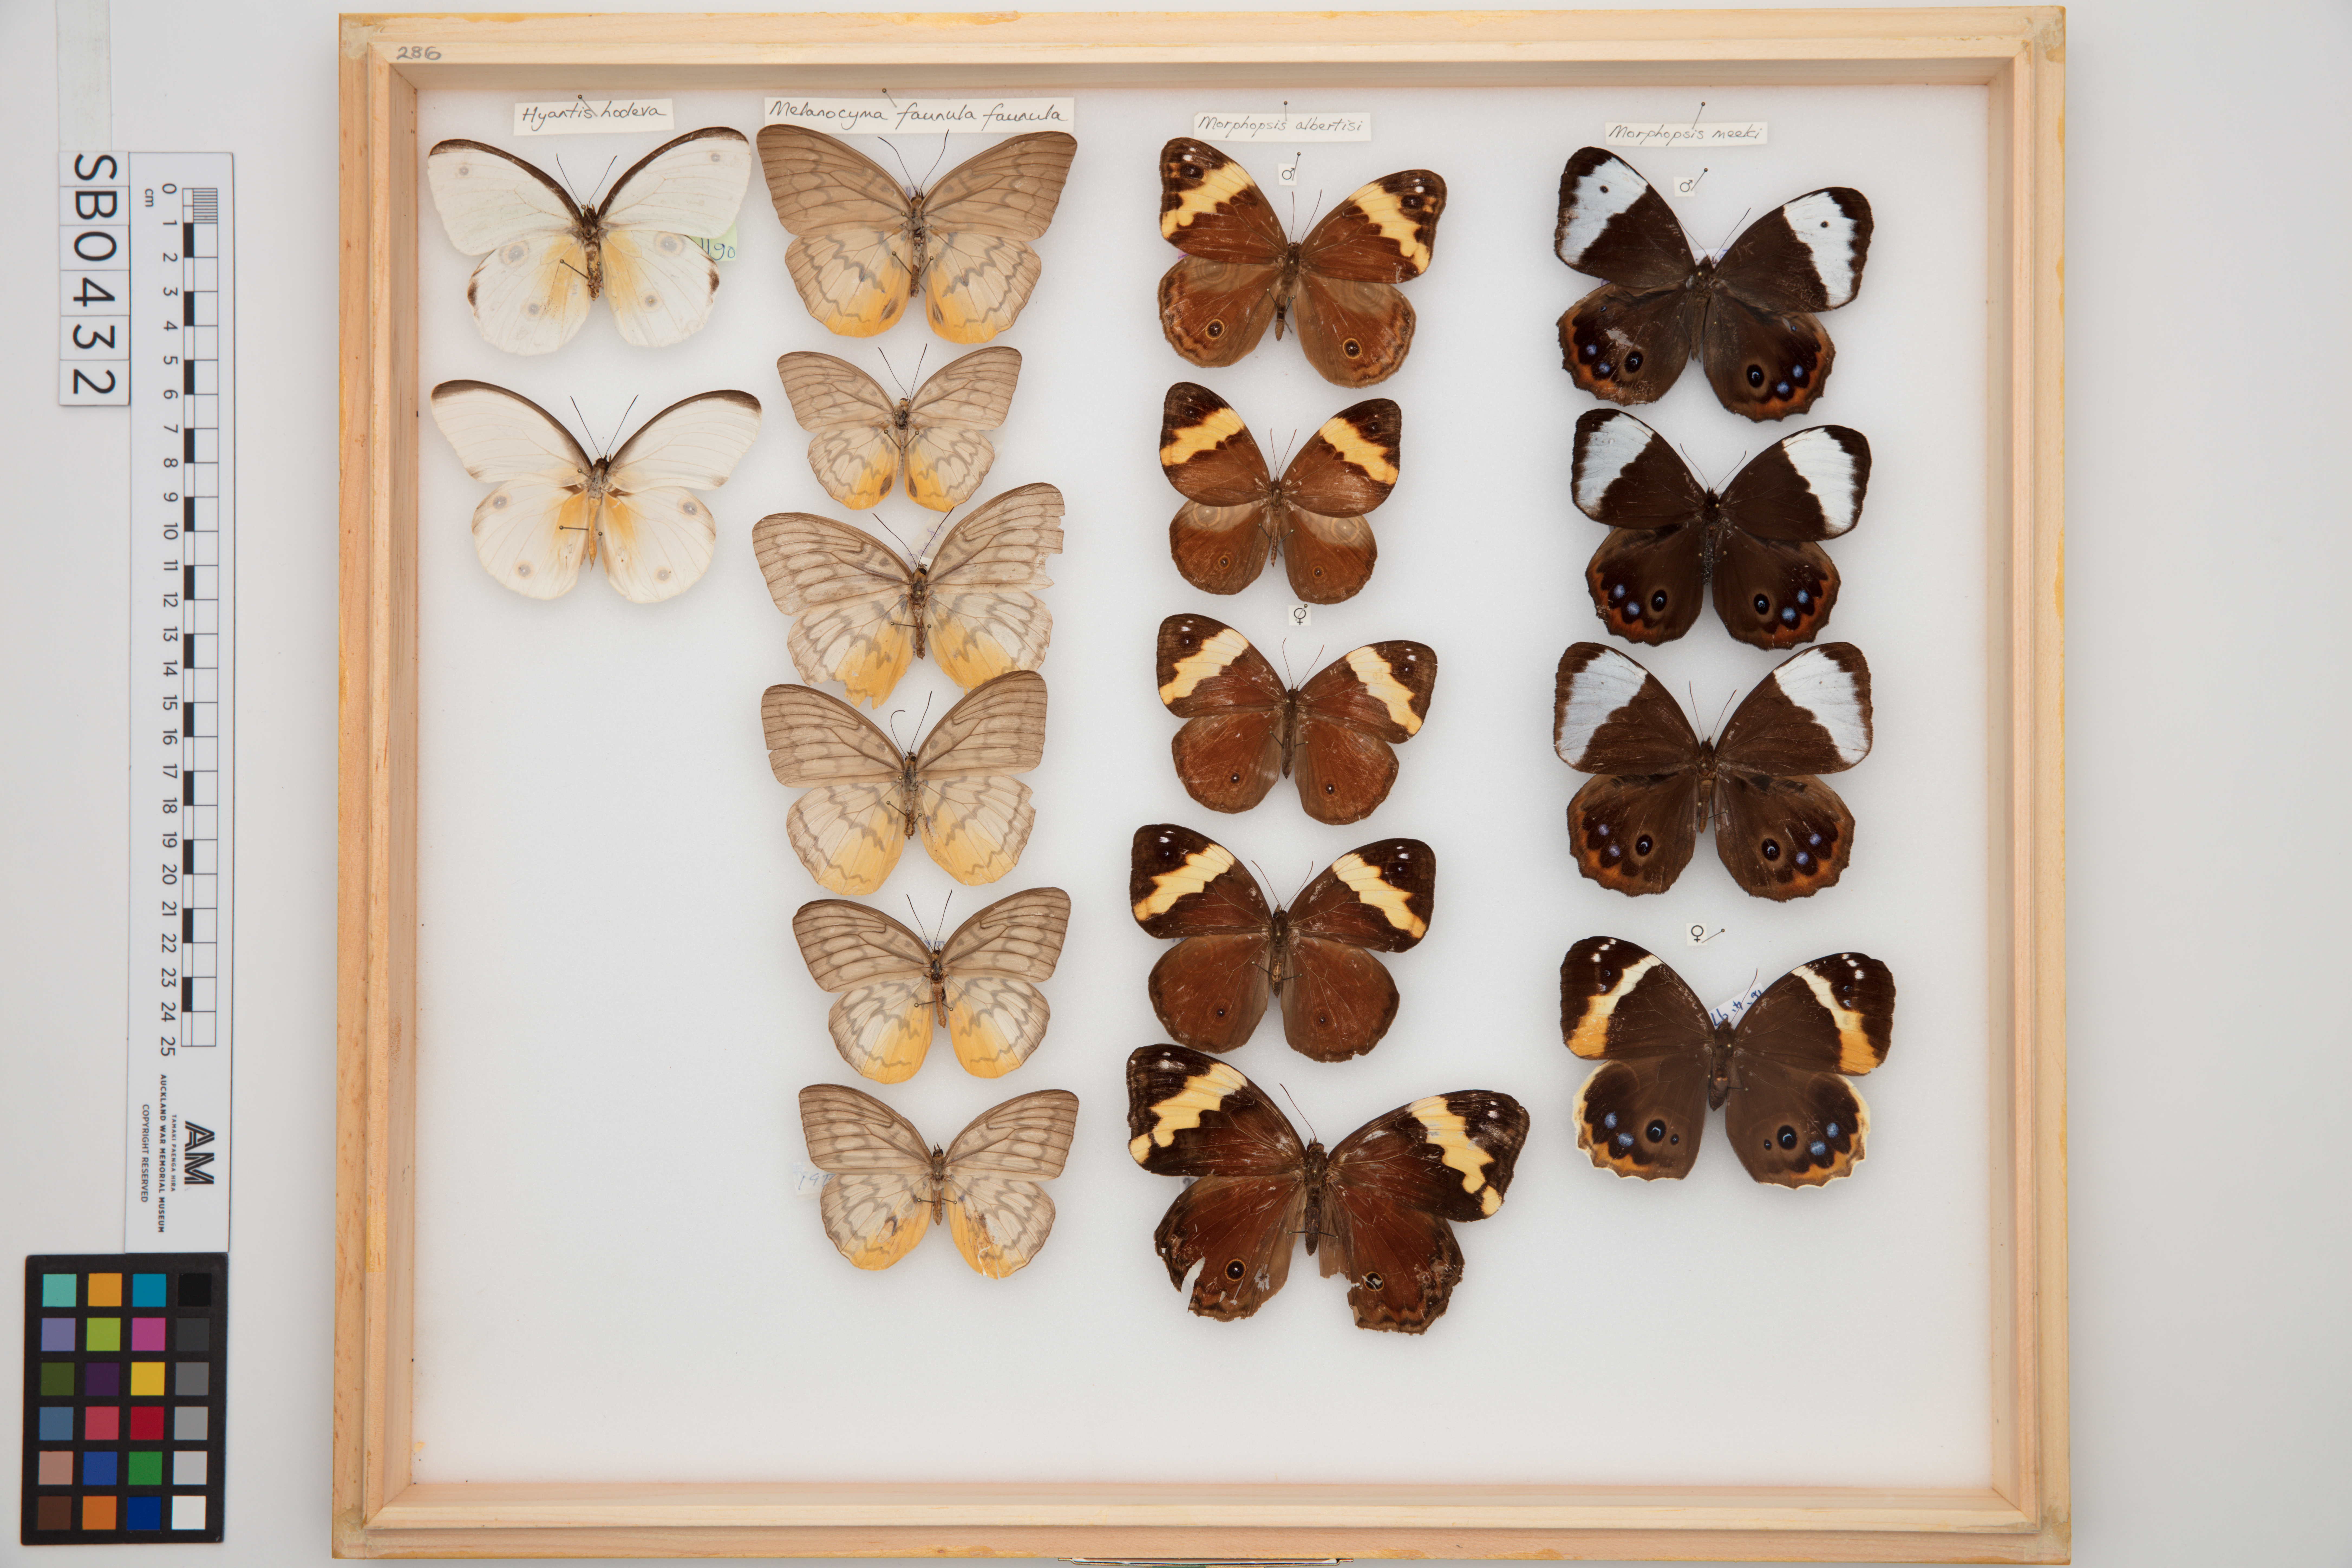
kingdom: Animalia
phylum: Arthropoda
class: Insecta
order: Lepidoptera
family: Nymphalidae
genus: Morphopsis
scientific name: Morphopsis meeki
